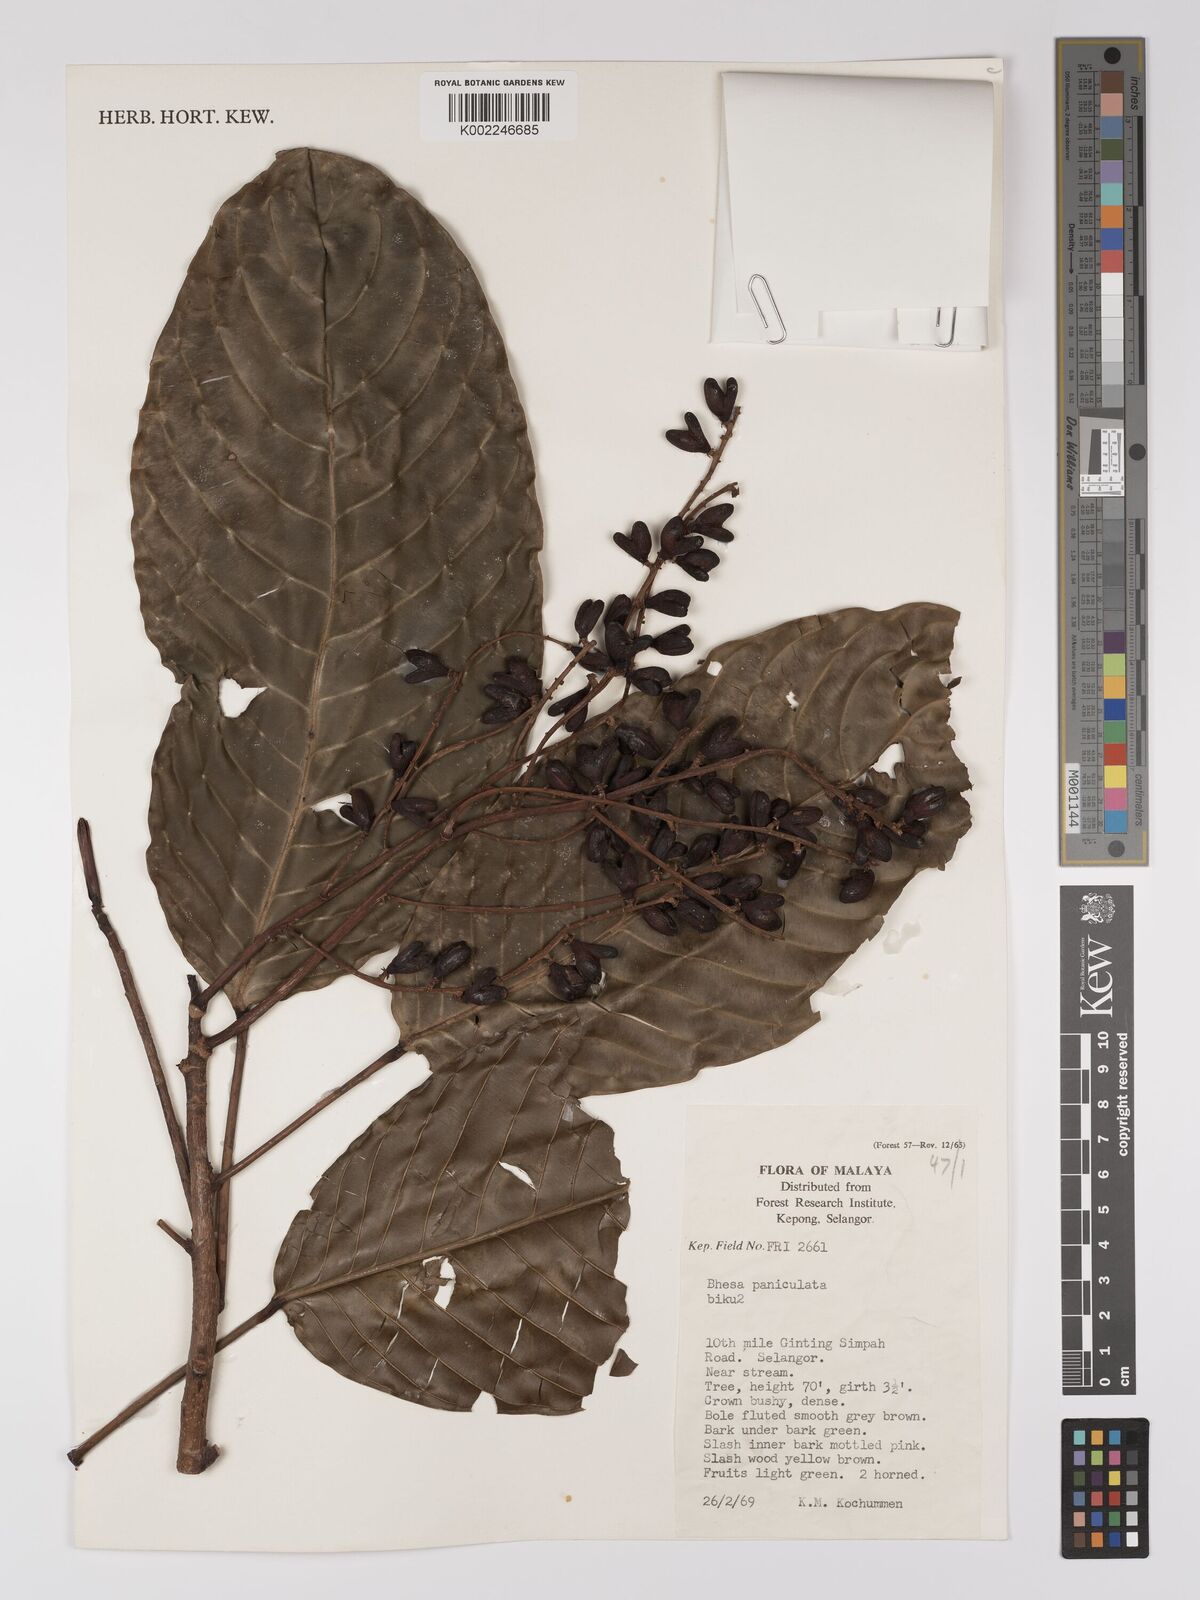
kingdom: Plantae
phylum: Tracheophyta
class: Magnoliopsida
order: Malpighiales
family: Centroplacaceae
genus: Bhesa
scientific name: Bhesa paniculata
